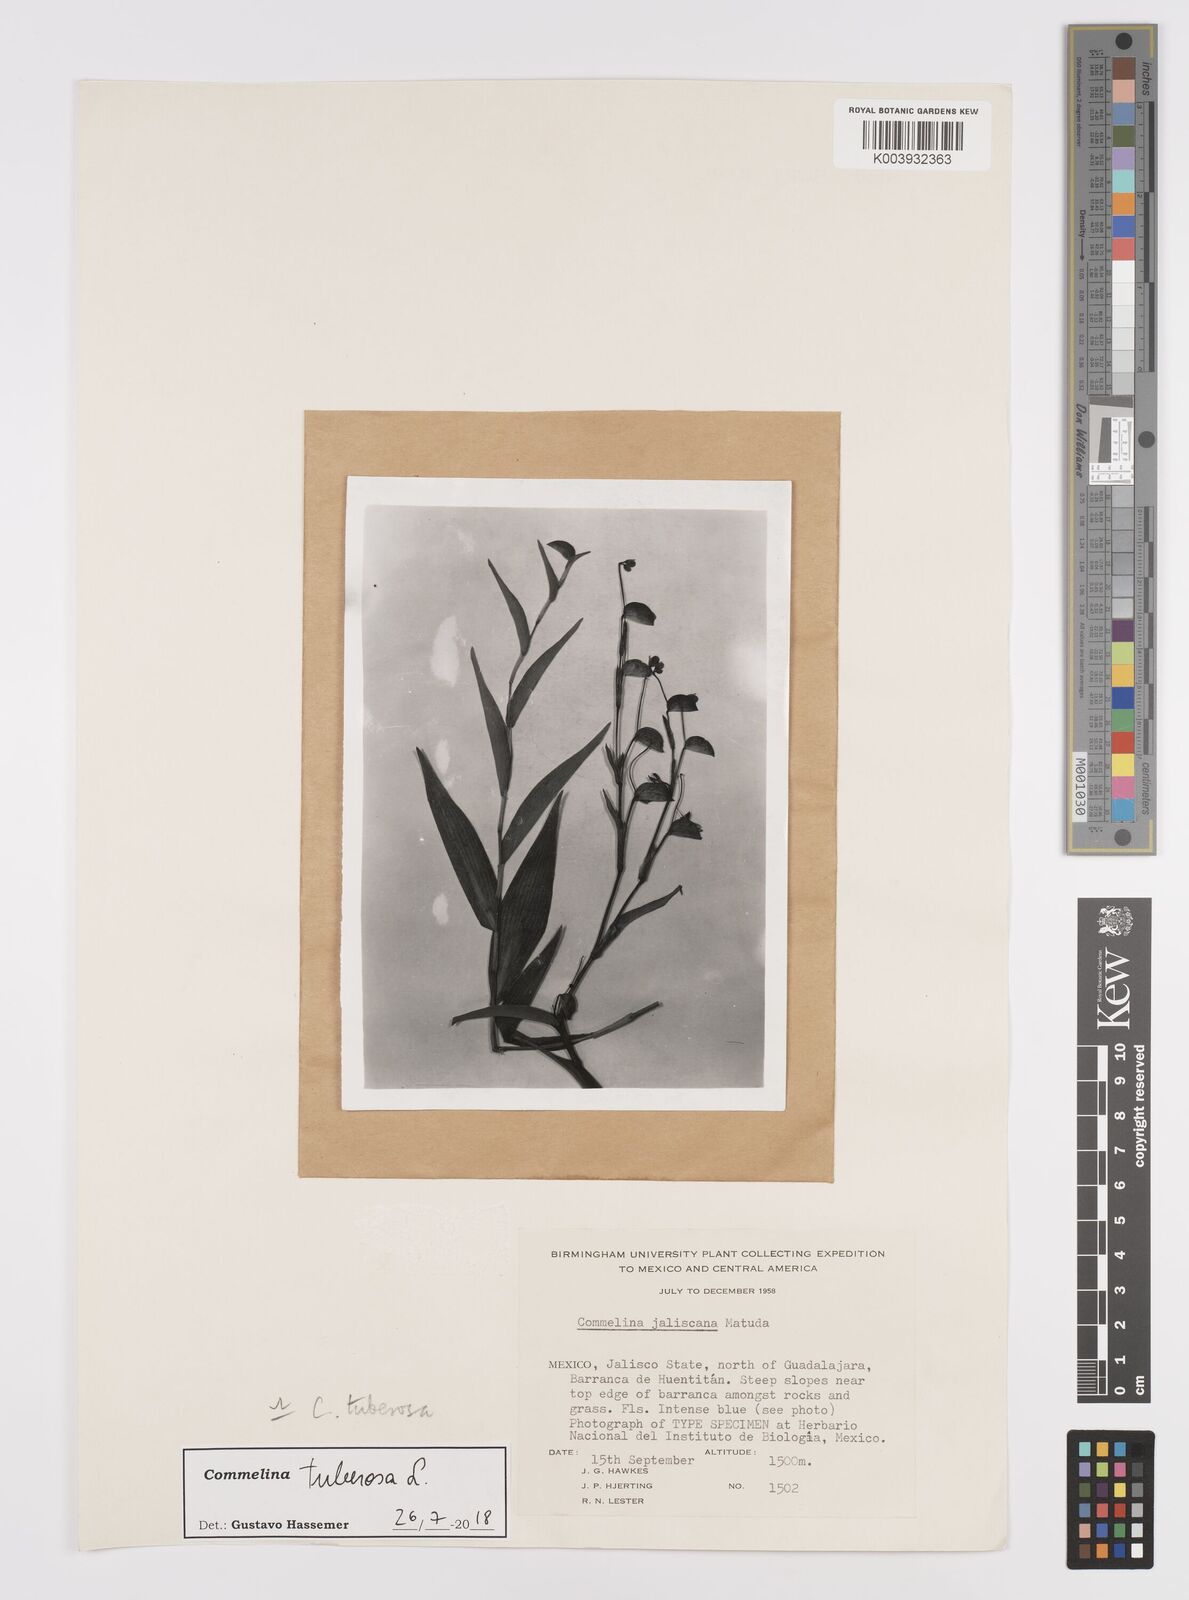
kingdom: Plantae
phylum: Tracheophyta
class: Liliopsida
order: Commelinales
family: Commelinaceae
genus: Commelina
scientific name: Commelina tuberosa
